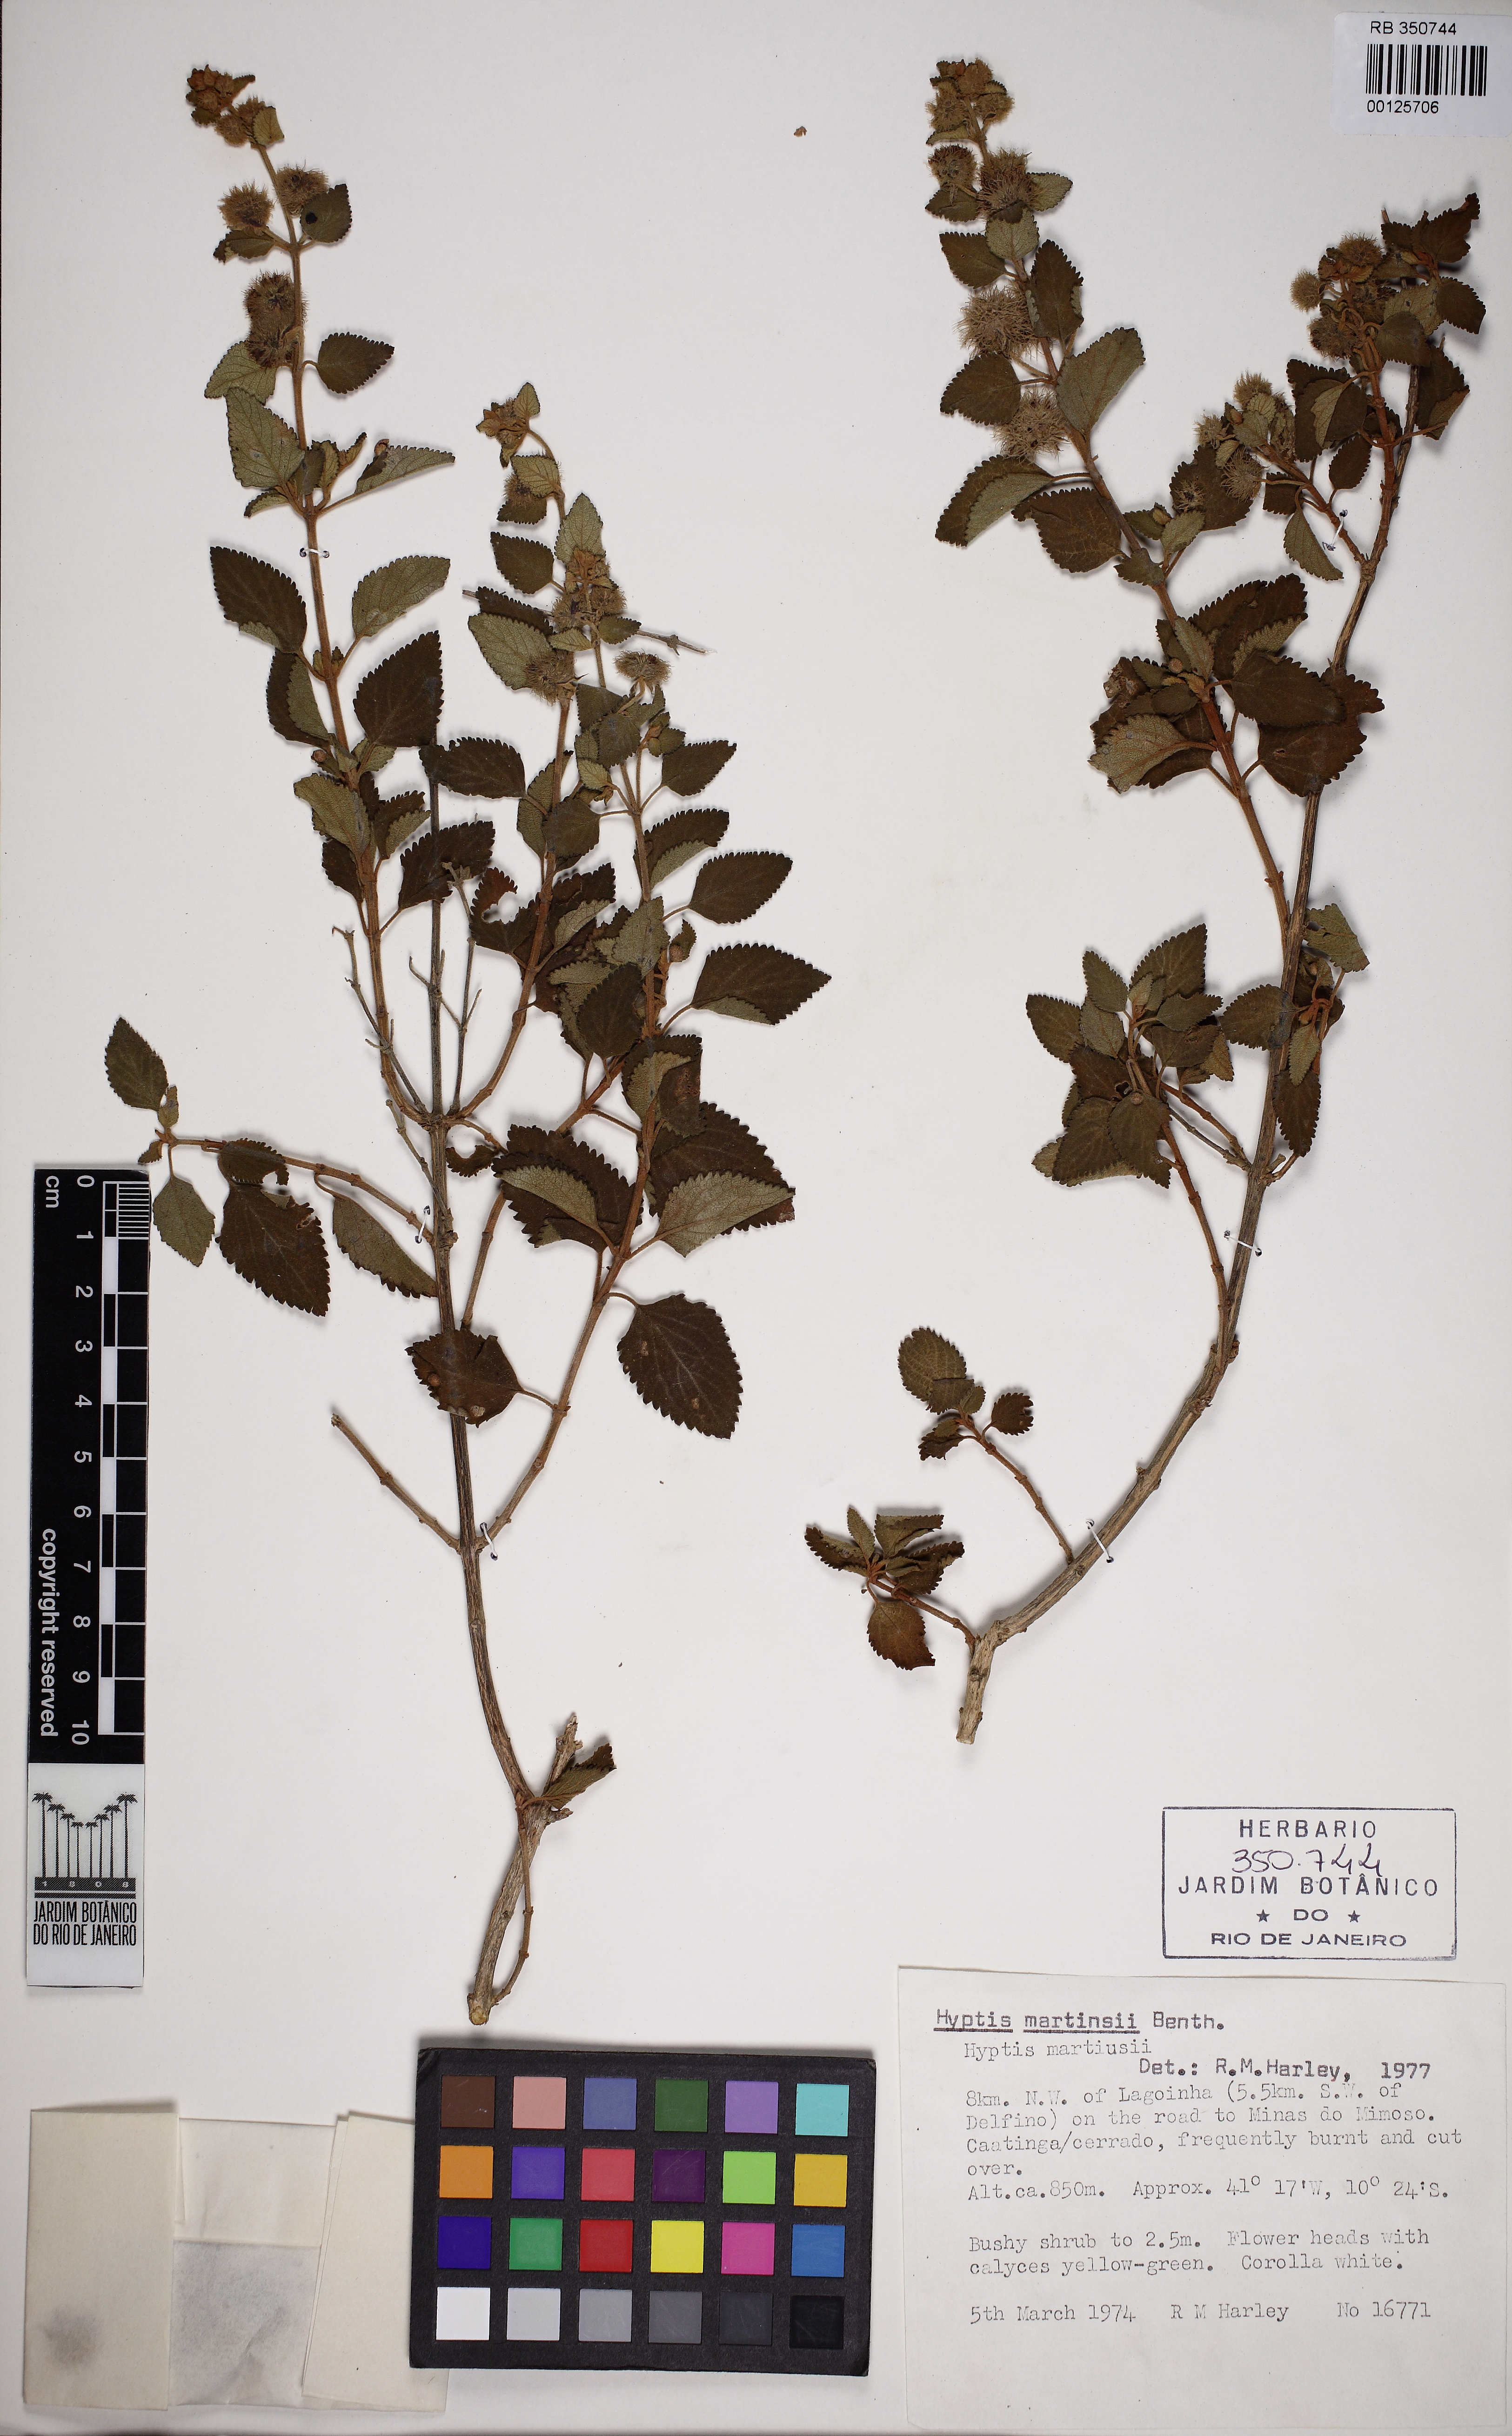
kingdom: Plantae
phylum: Tracheophyta
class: Magnoliopsida
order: Lamiales
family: Lamiaceae
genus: Medusantha
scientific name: Medusantha martiusii
